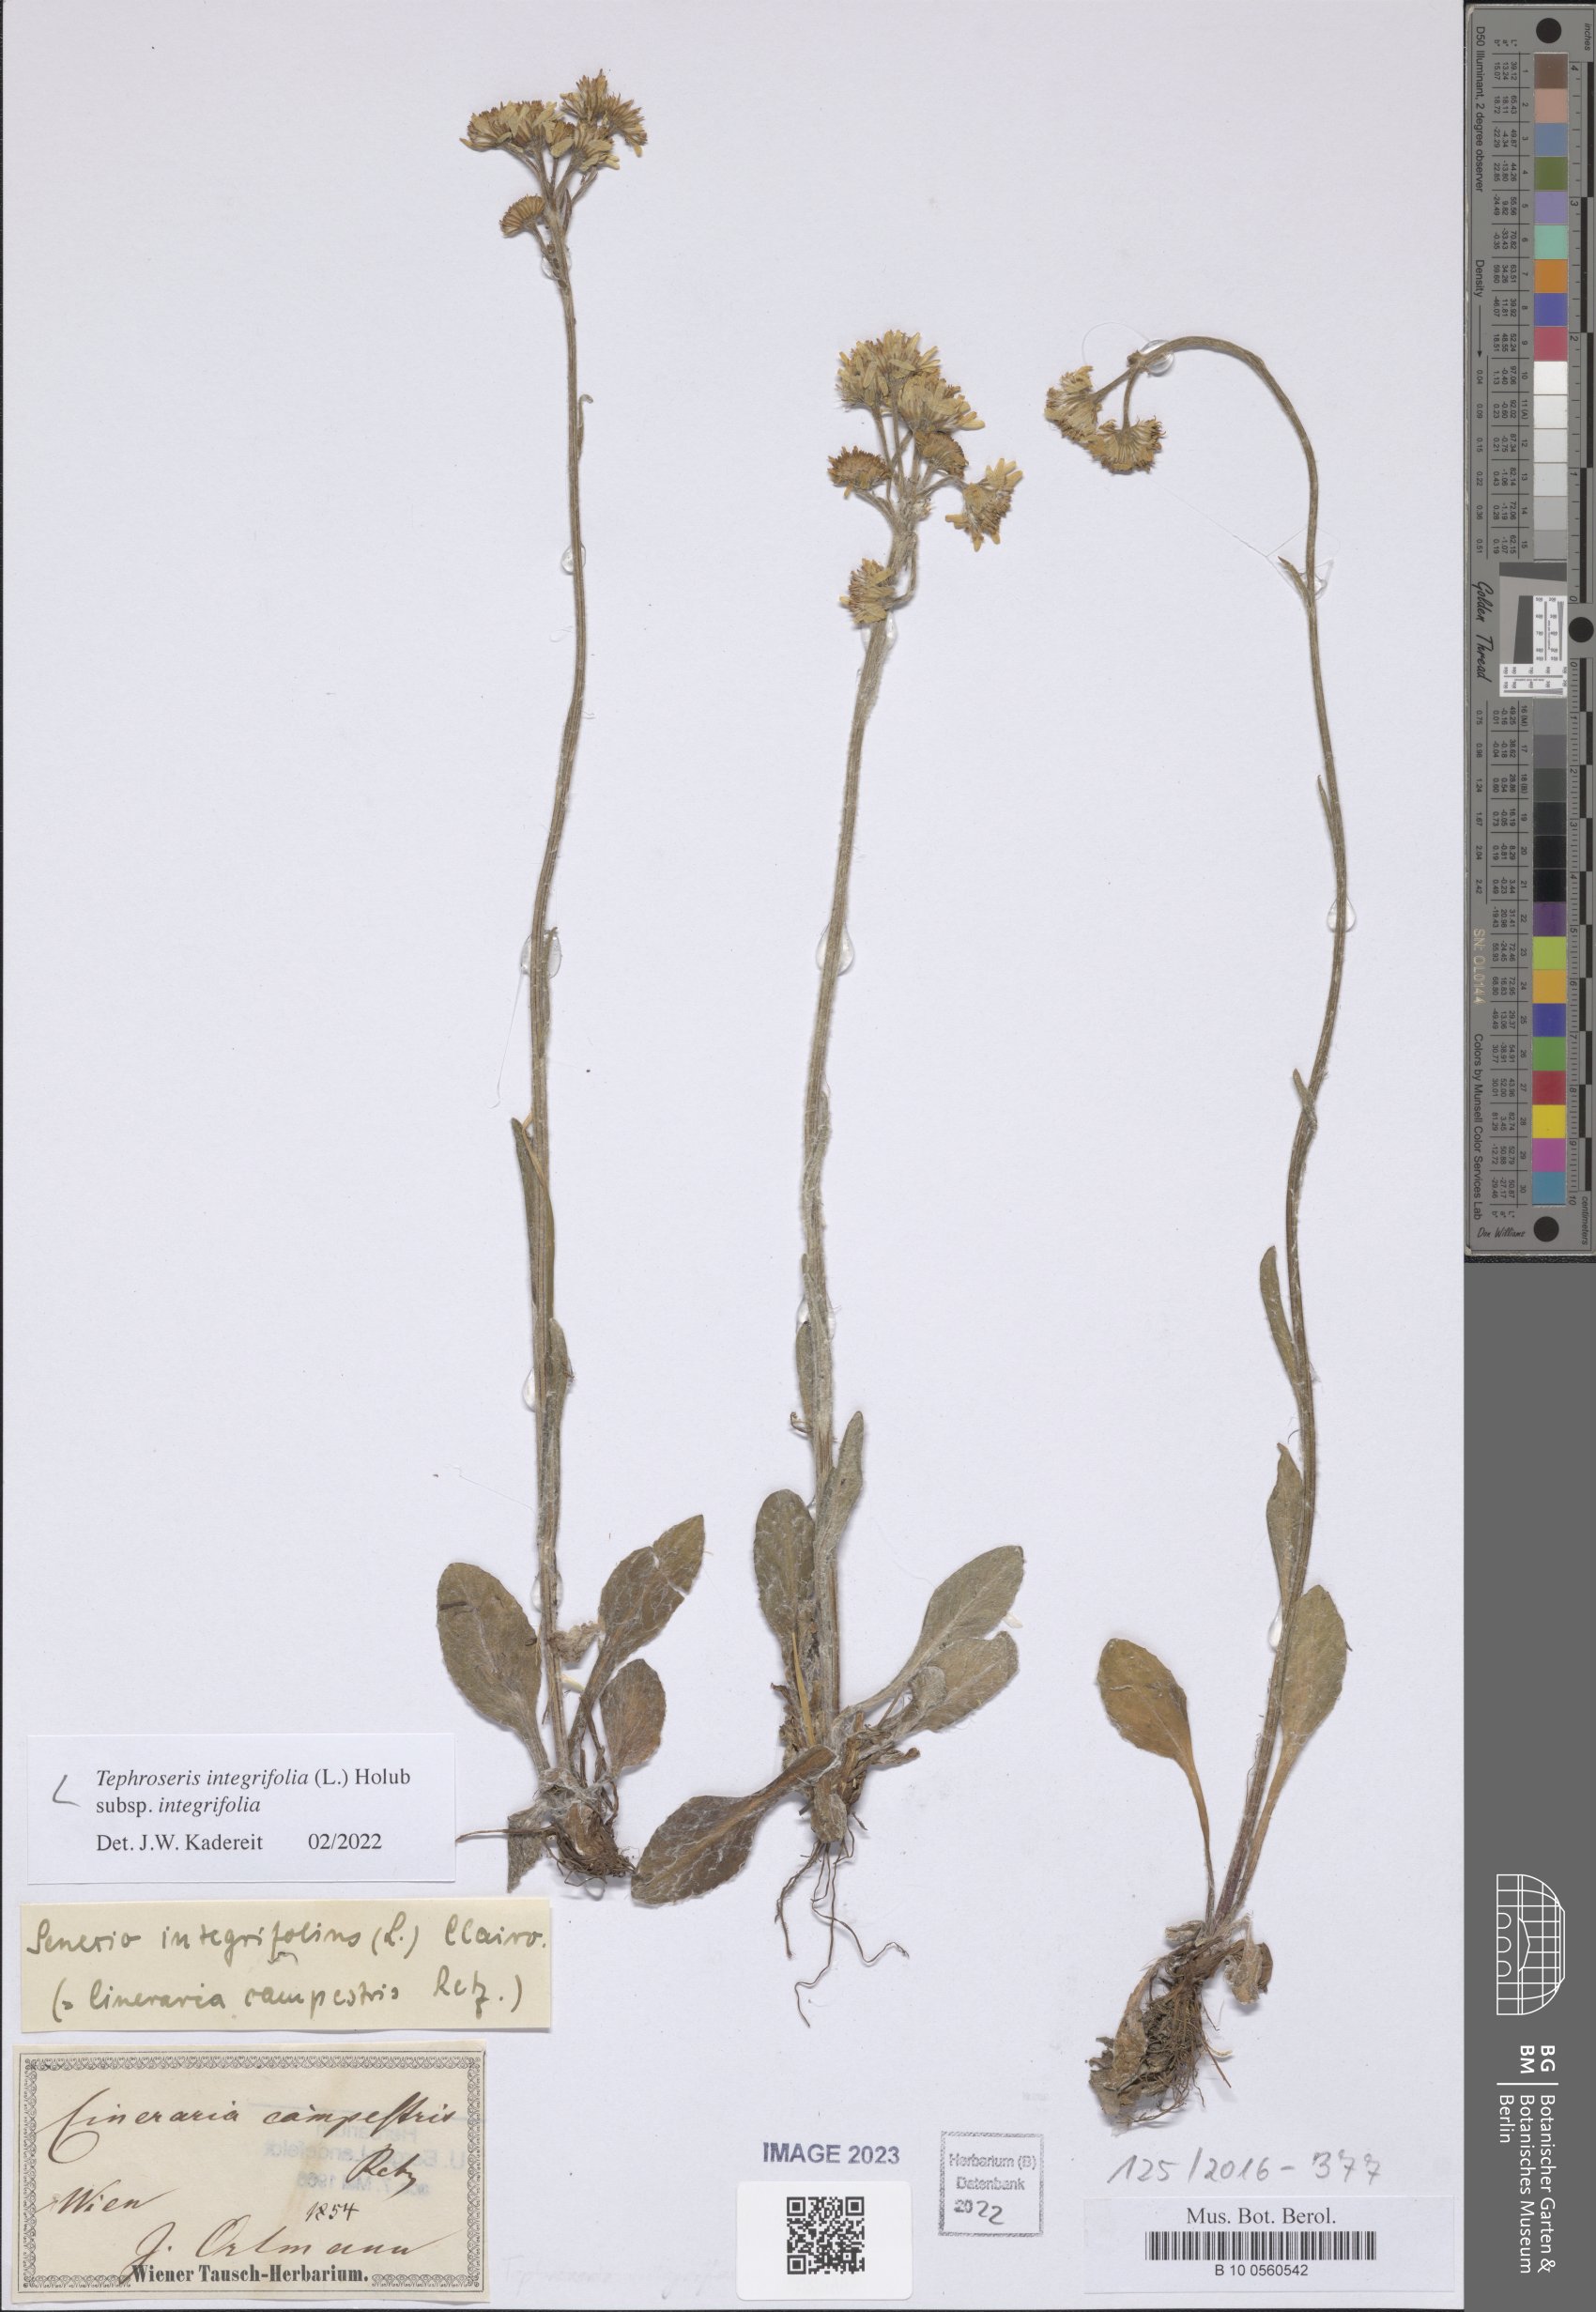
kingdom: Plantae
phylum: Tracheophyta
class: Magnoliopsida
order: Asterales
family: Asteraceae
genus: Tephroseris
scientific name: Tephroseris integrifolia
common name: Field fleawort
